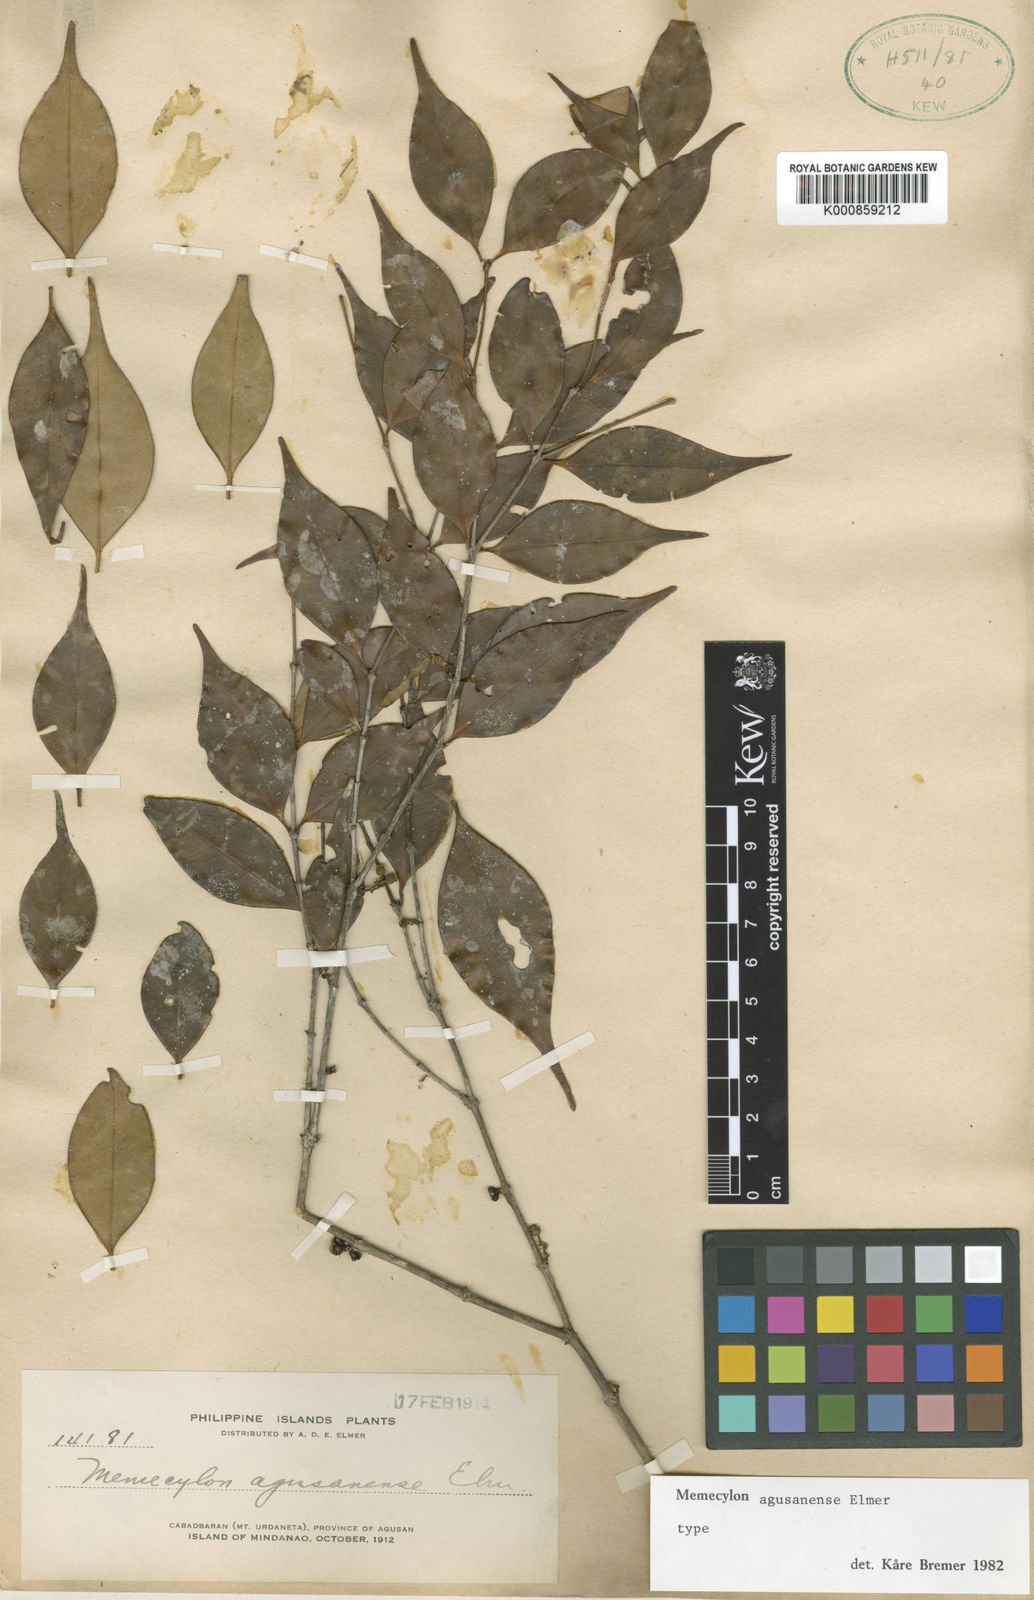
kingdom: Plantae
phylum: Tracheophyta
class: Magnoliopsida
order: Myrtales
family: Melastomataceae
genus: Memecylon
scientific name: Memecylon gitingense
